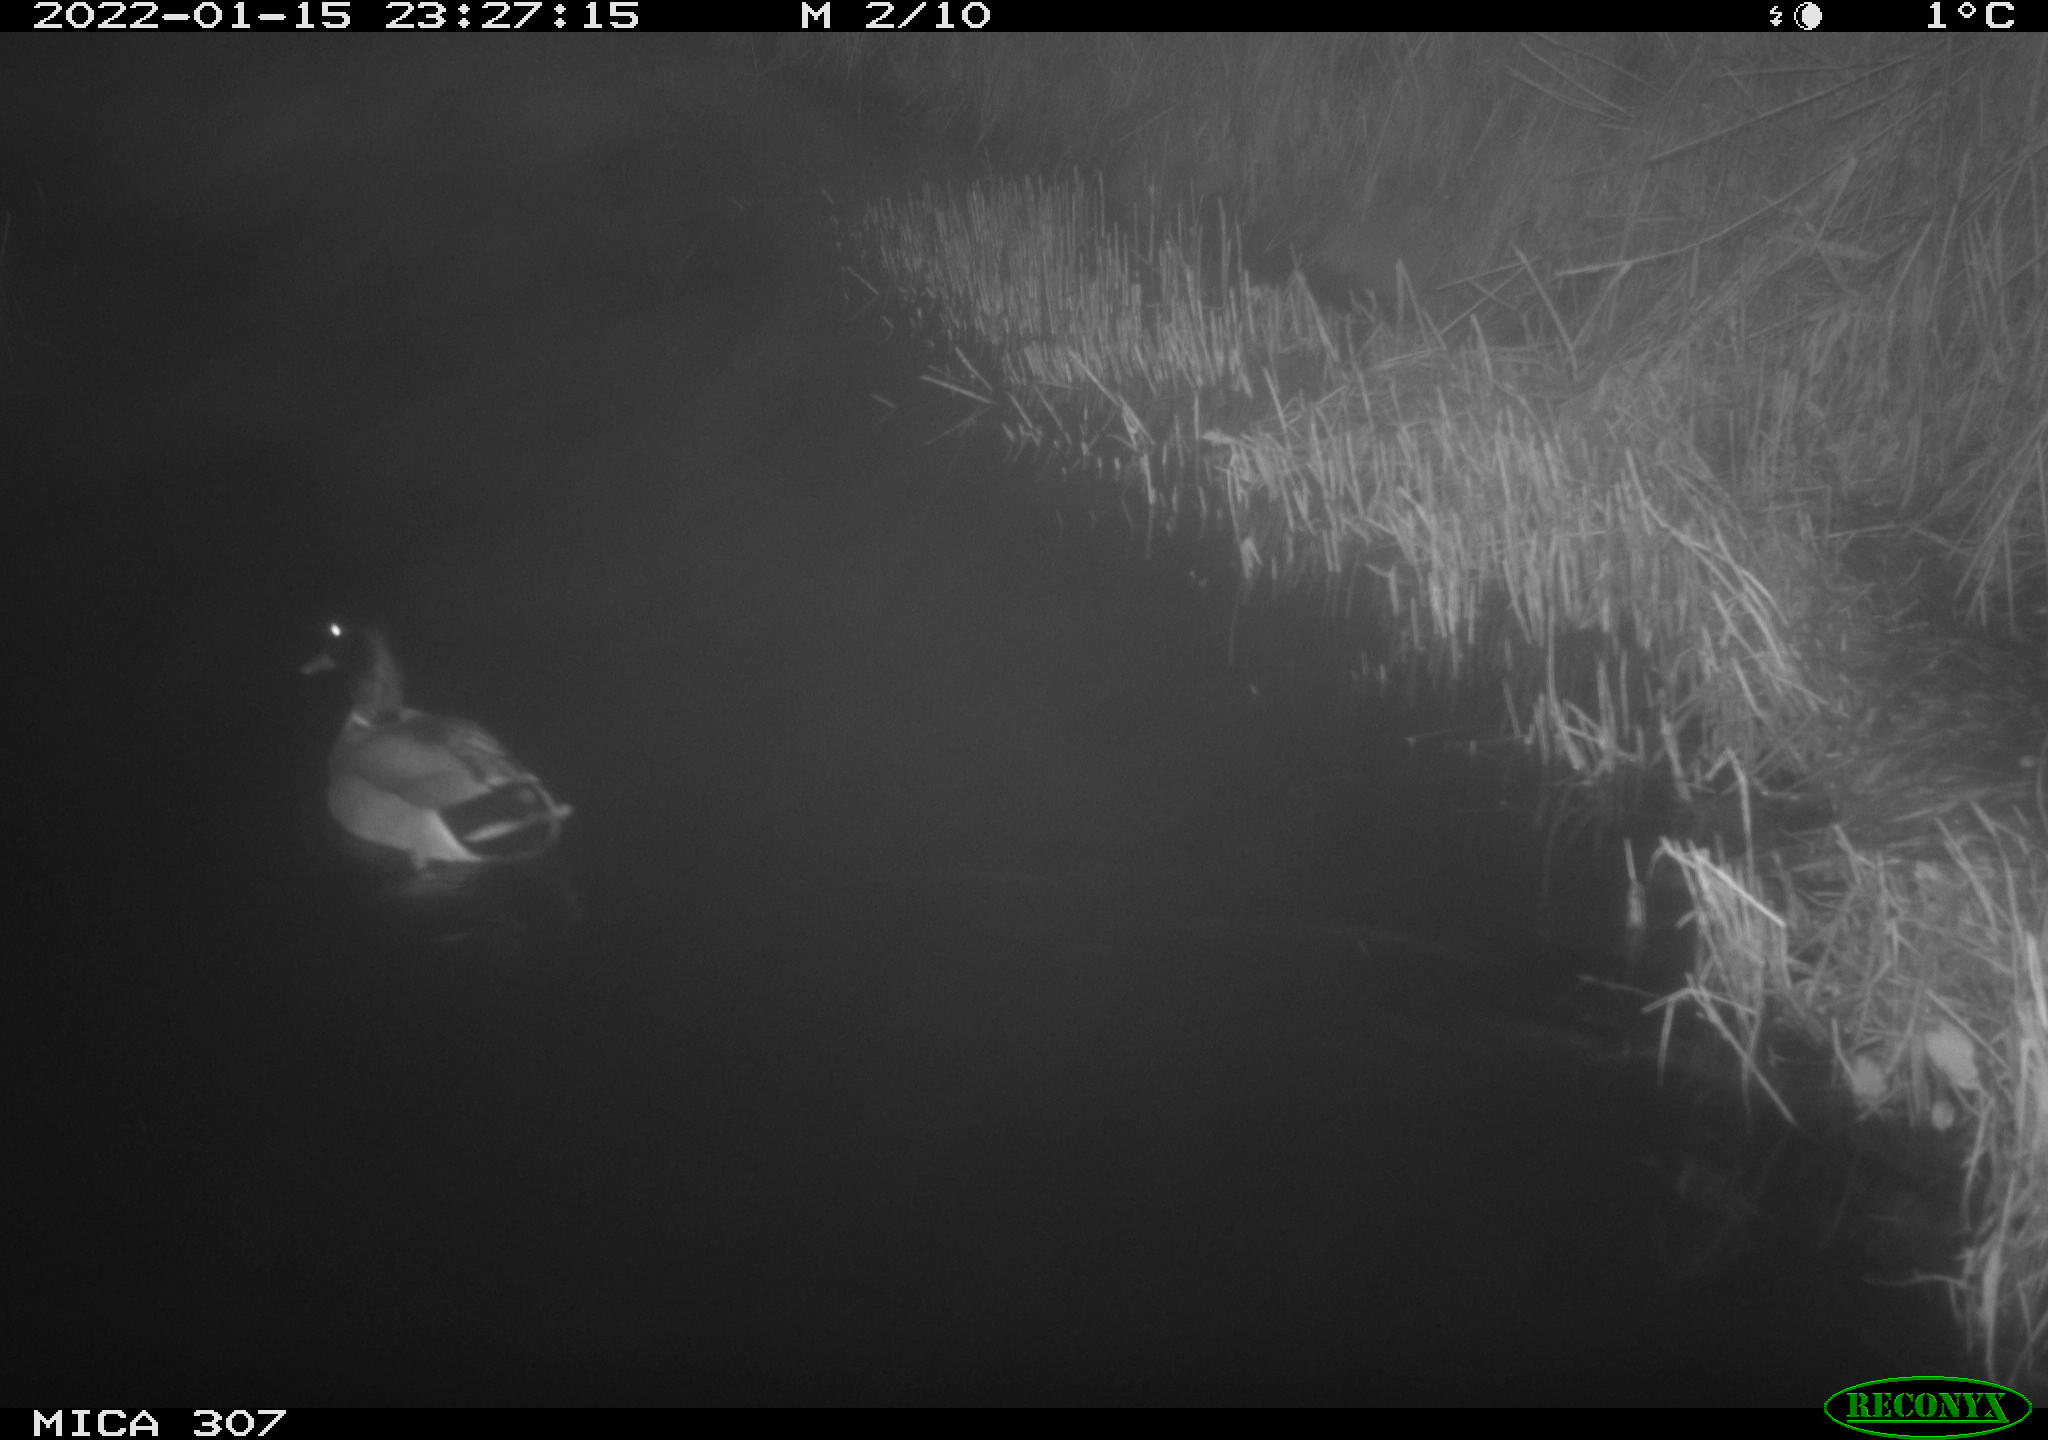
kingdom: Animalia
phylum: Chordata
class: Aves
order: Anseriformes
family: Anatidae
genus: Anas
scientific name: Anas
